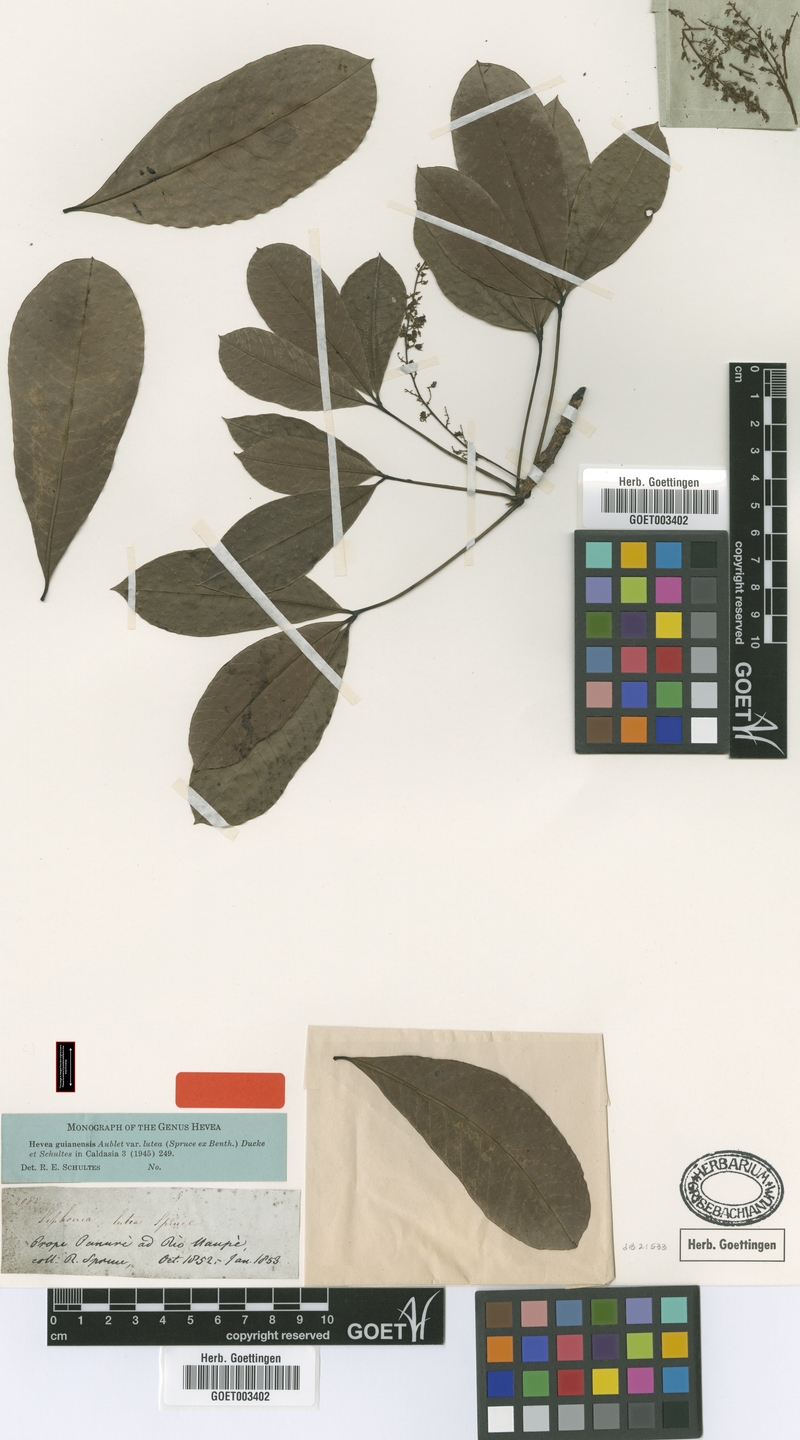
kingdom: Plantae
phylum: Tracheophyta
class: Magnoliopsida
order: Malpighiales
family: Euphorbiaceae
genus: Hevea
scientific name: Hevea guianensis
